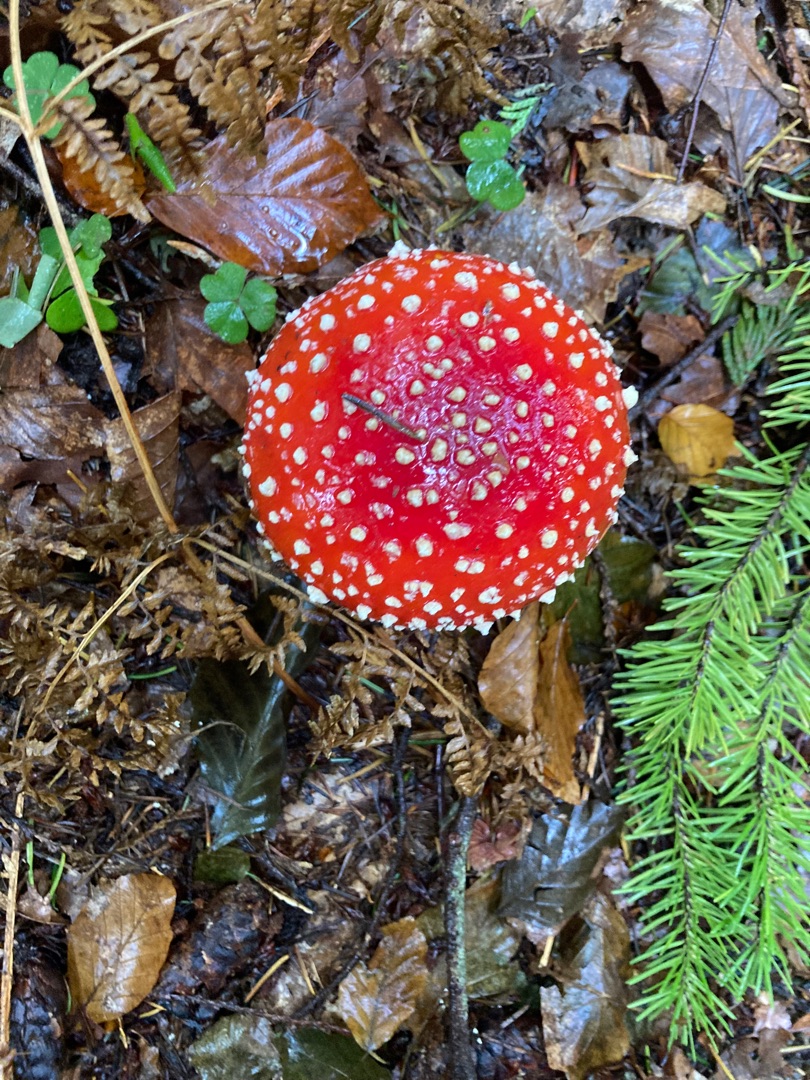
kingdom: Fungi
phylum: Basidiomycota
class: Agaricomycetes
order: Agaricales
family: Amanitaceae
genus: Amanita
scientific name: Amanita muscaria
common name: Rød fluesvamp
